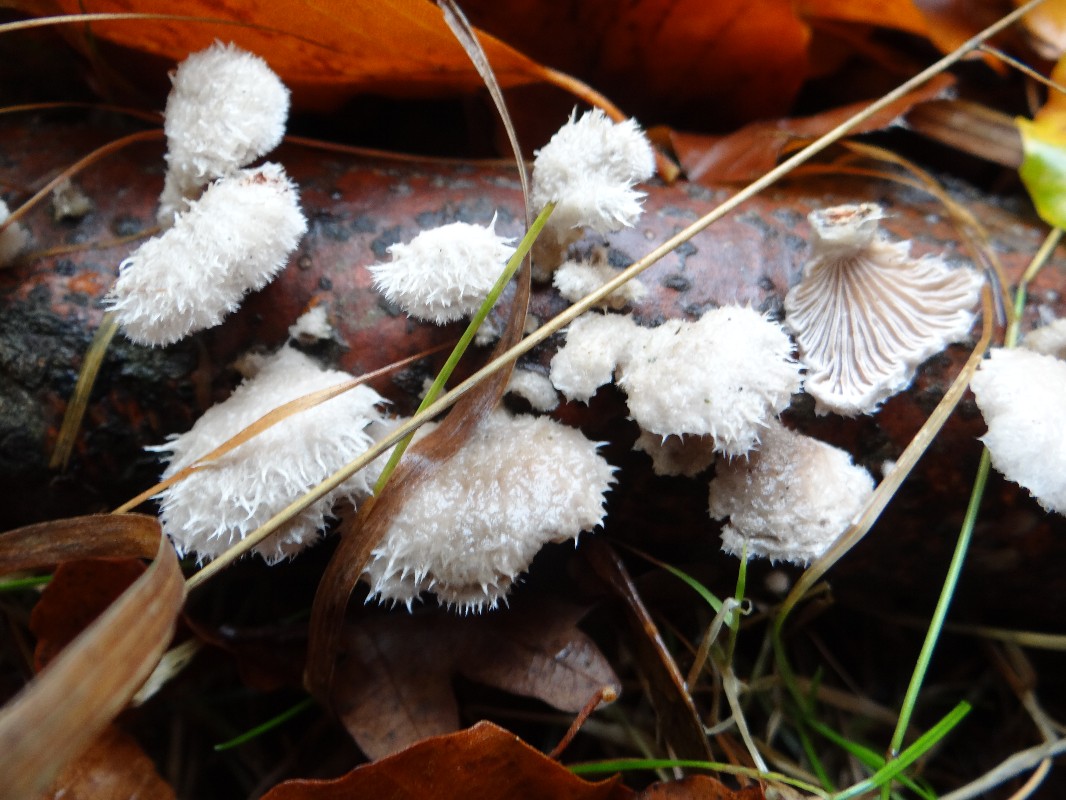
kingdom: Fungi
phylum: Basidiomycota
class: Agaricomycetes
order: Agaricales
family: Schizophyllaceae
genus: Schizophyllum
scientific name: Schizophyllum commune
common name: kløvblad
